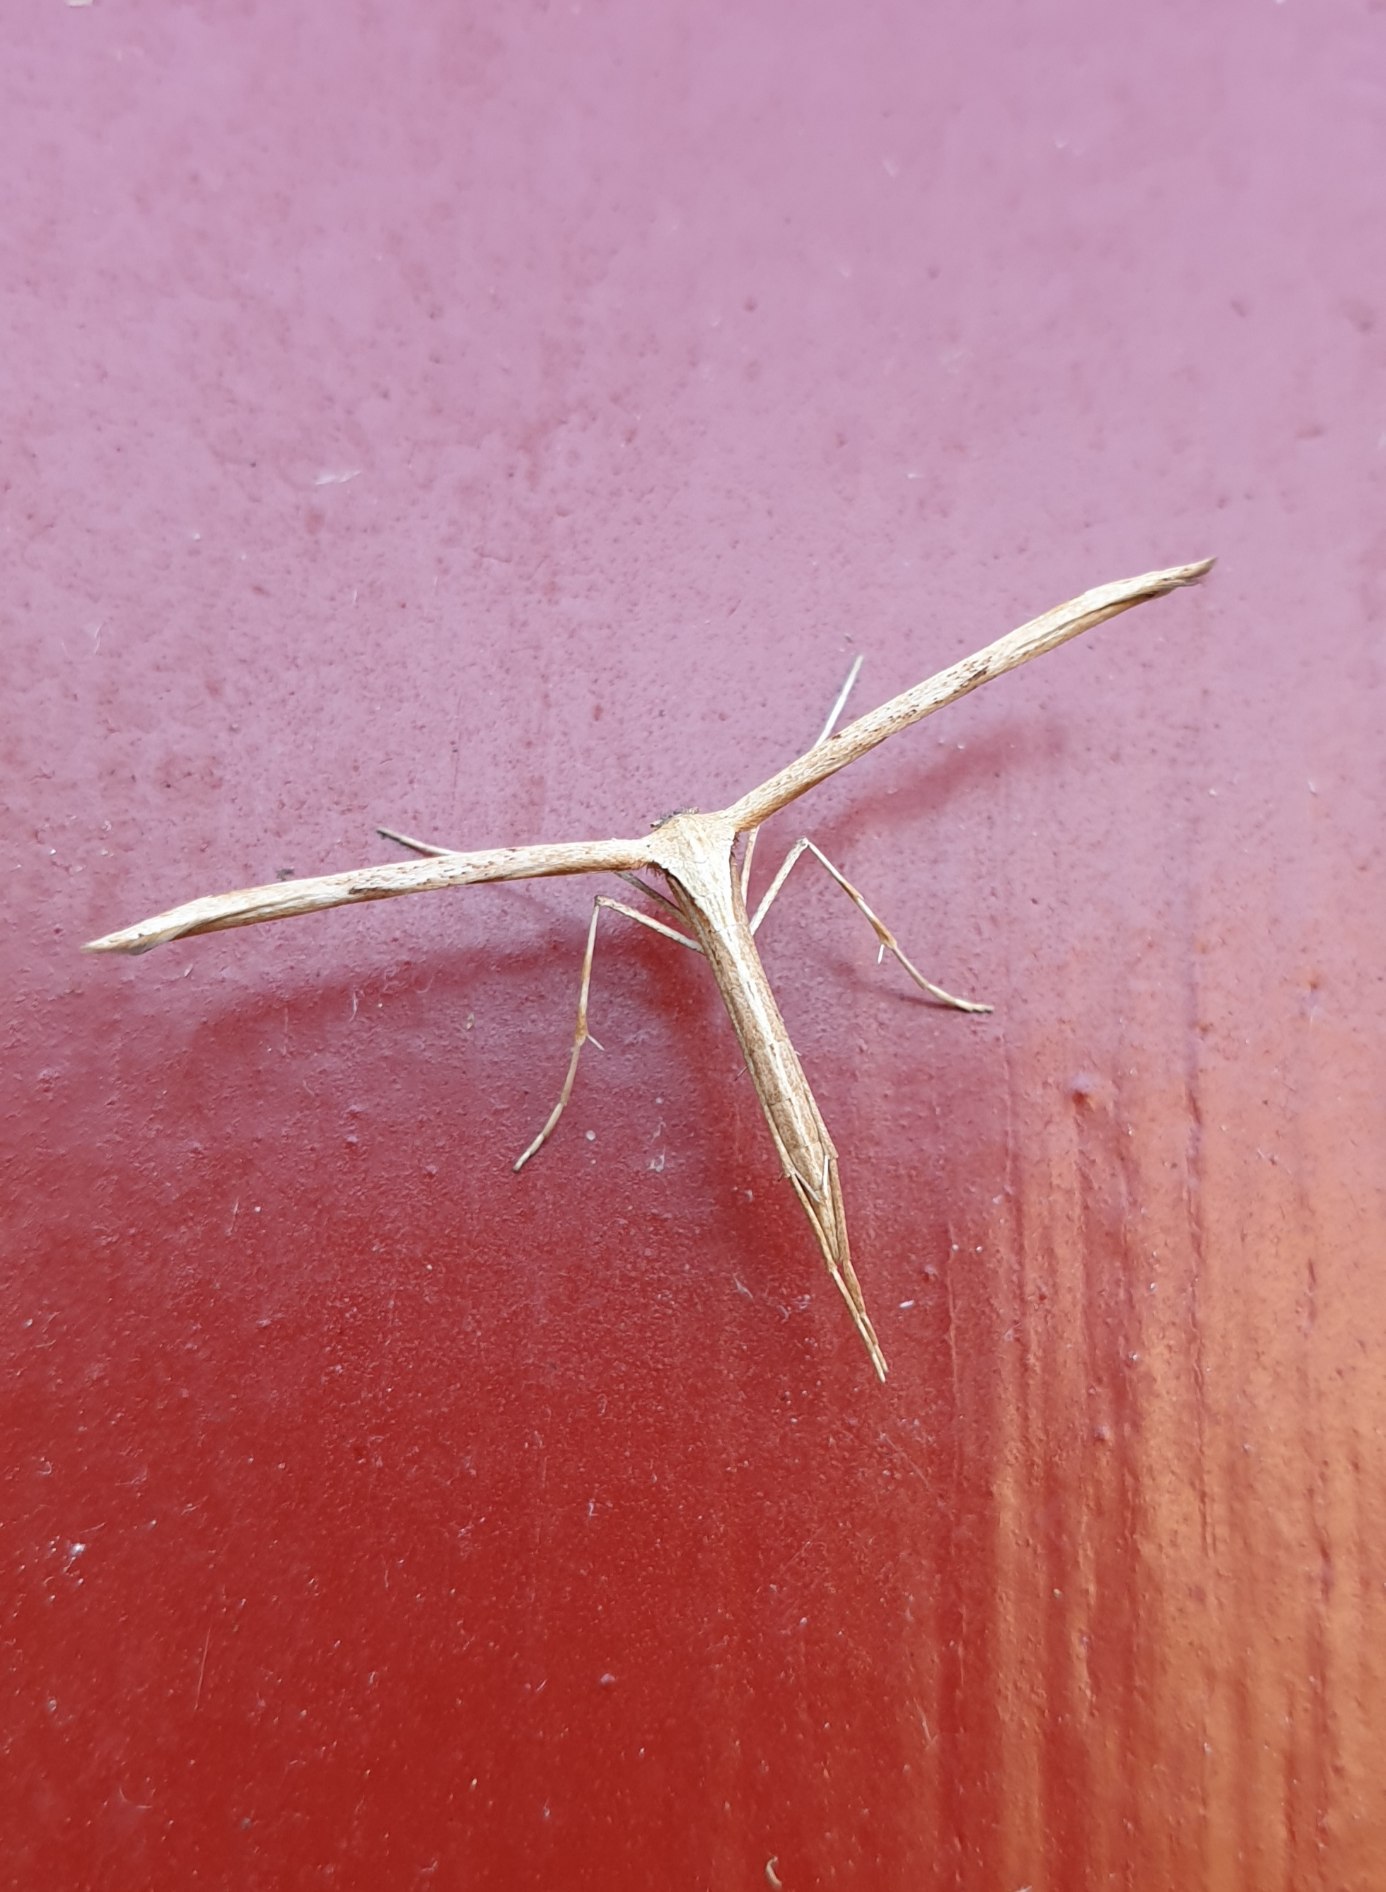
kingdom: Animalia
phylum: Arthropoda
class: Insecta
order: Lepidoptera
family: Pterophoridae
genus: Emmelina
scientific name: Emmelina monodactyla
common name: Snerlefjermøl
